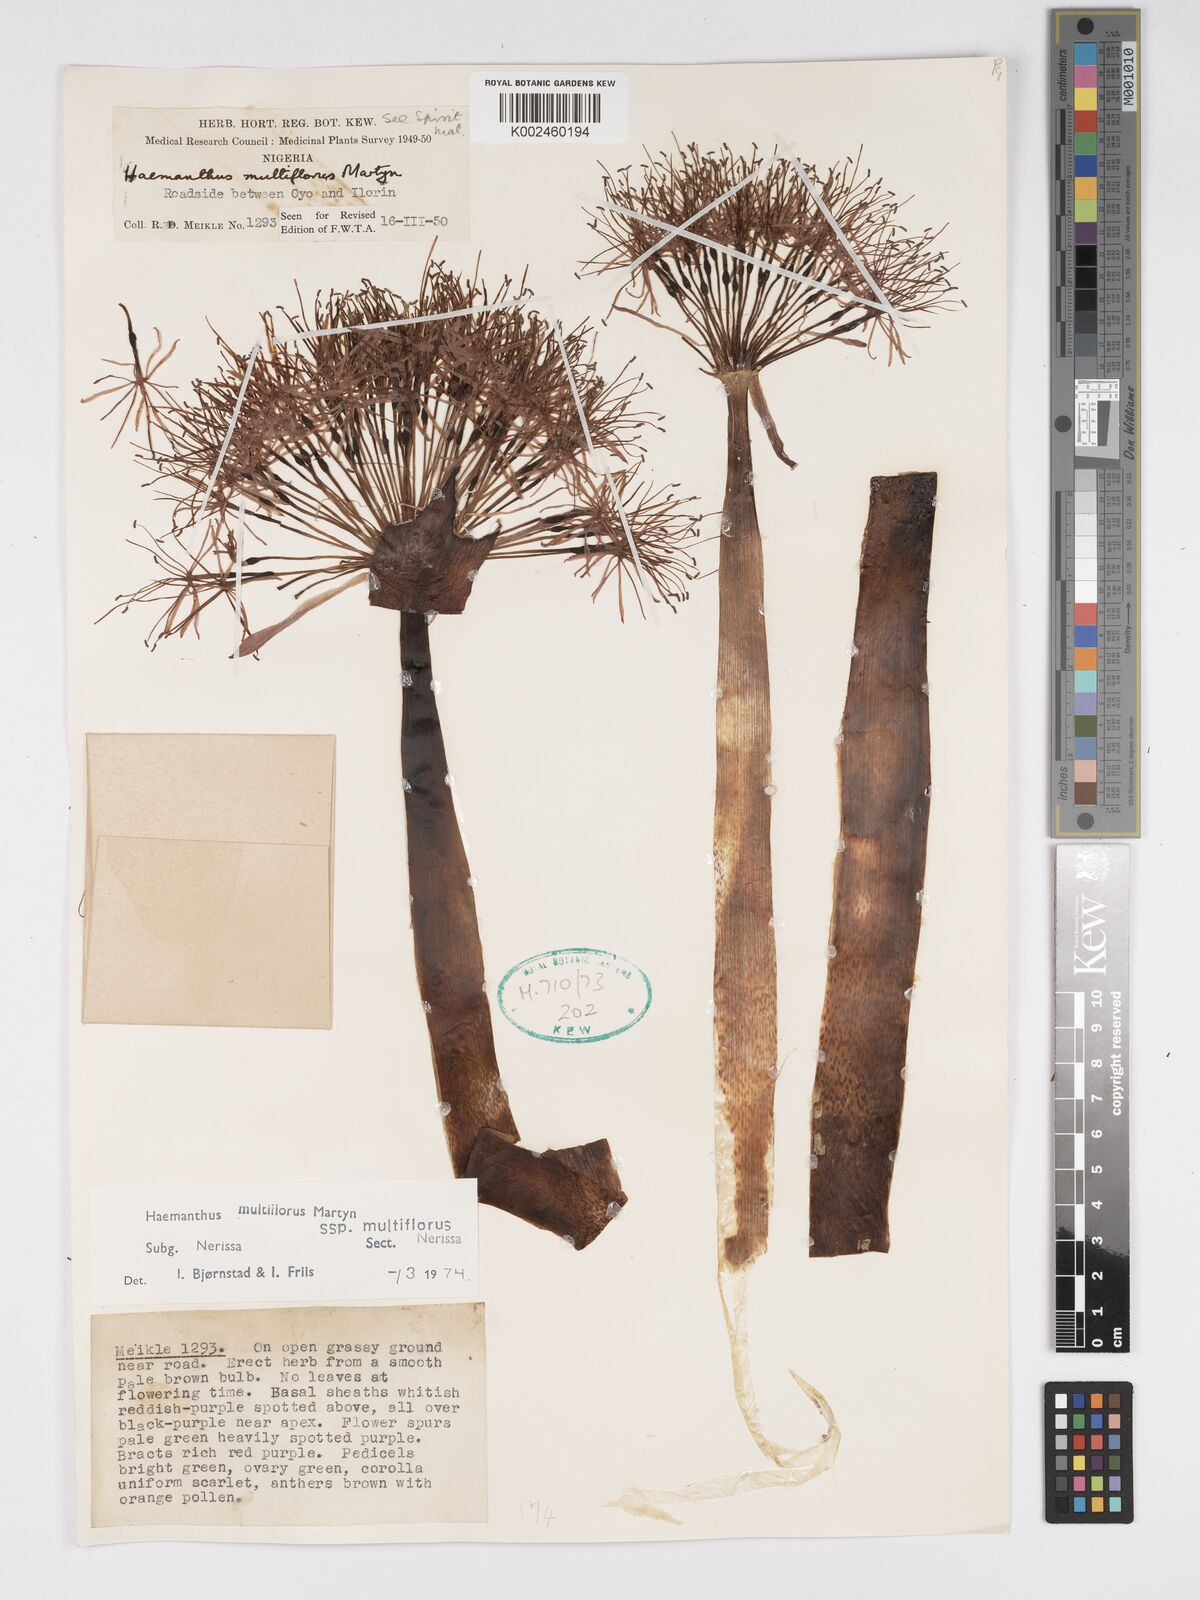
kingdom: Plantae
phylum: Tracheophyta
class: Liliopsida
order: Asparagales
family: Amaryllidaceae
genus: Scadoxus
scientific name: Scadoxus multiflorus
